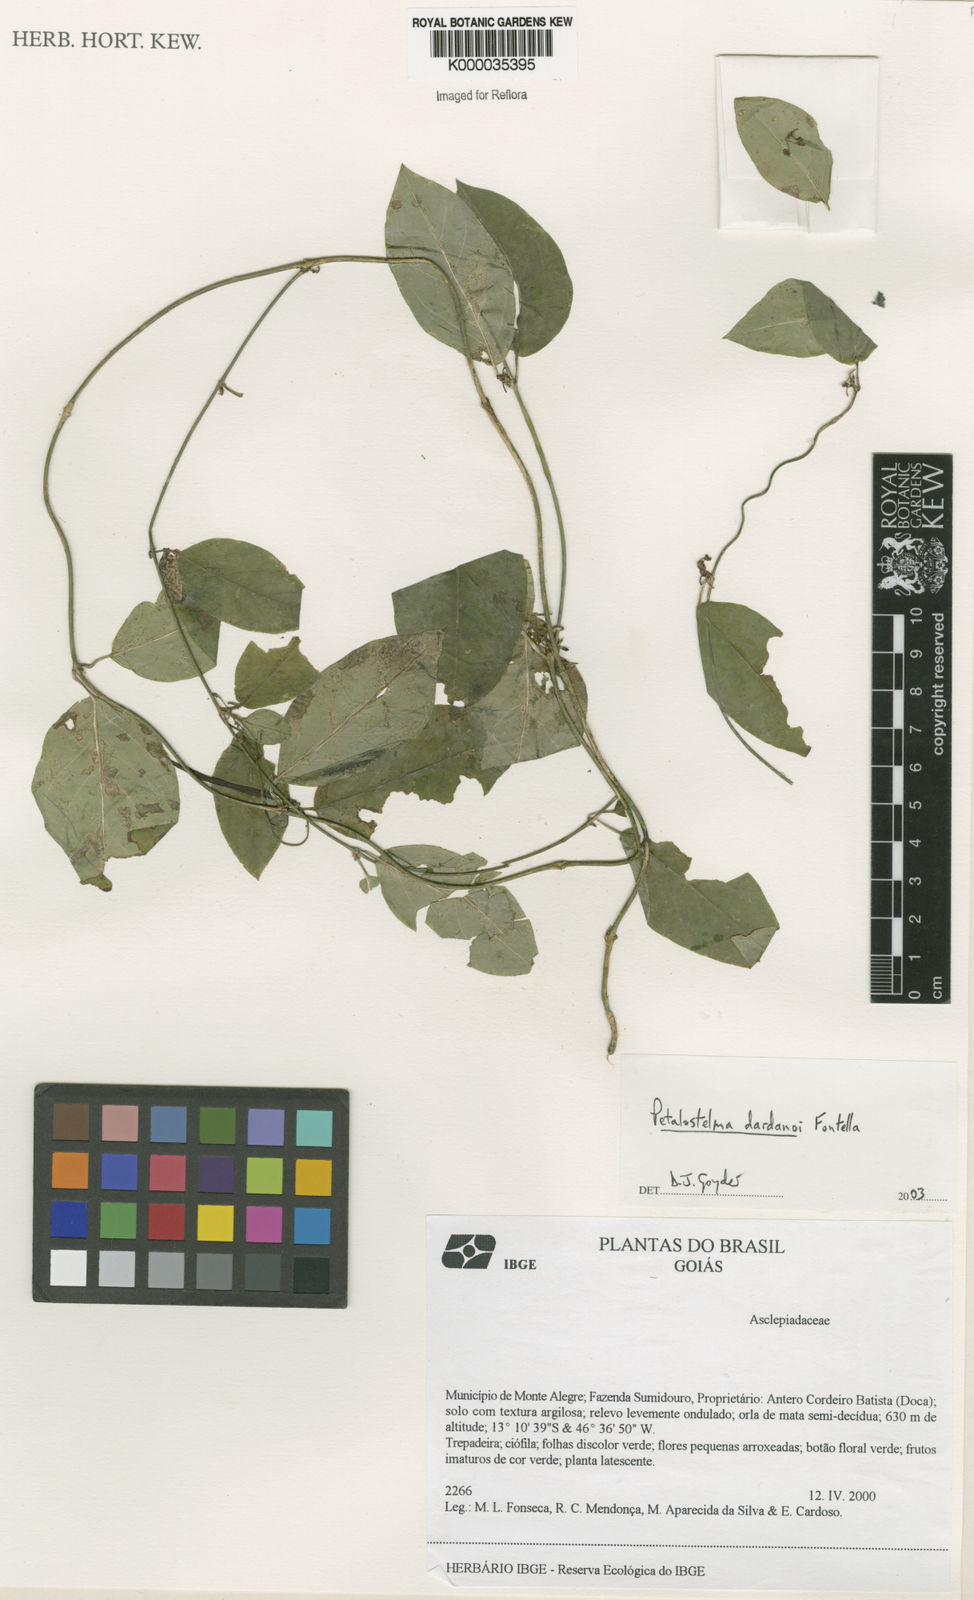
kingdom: Plantae
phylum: Tracheophyta
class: Magnoliopsida
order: Gentianales
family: Apocynaceae
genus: Petalostelma
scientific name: Petalostelma dardanoi
